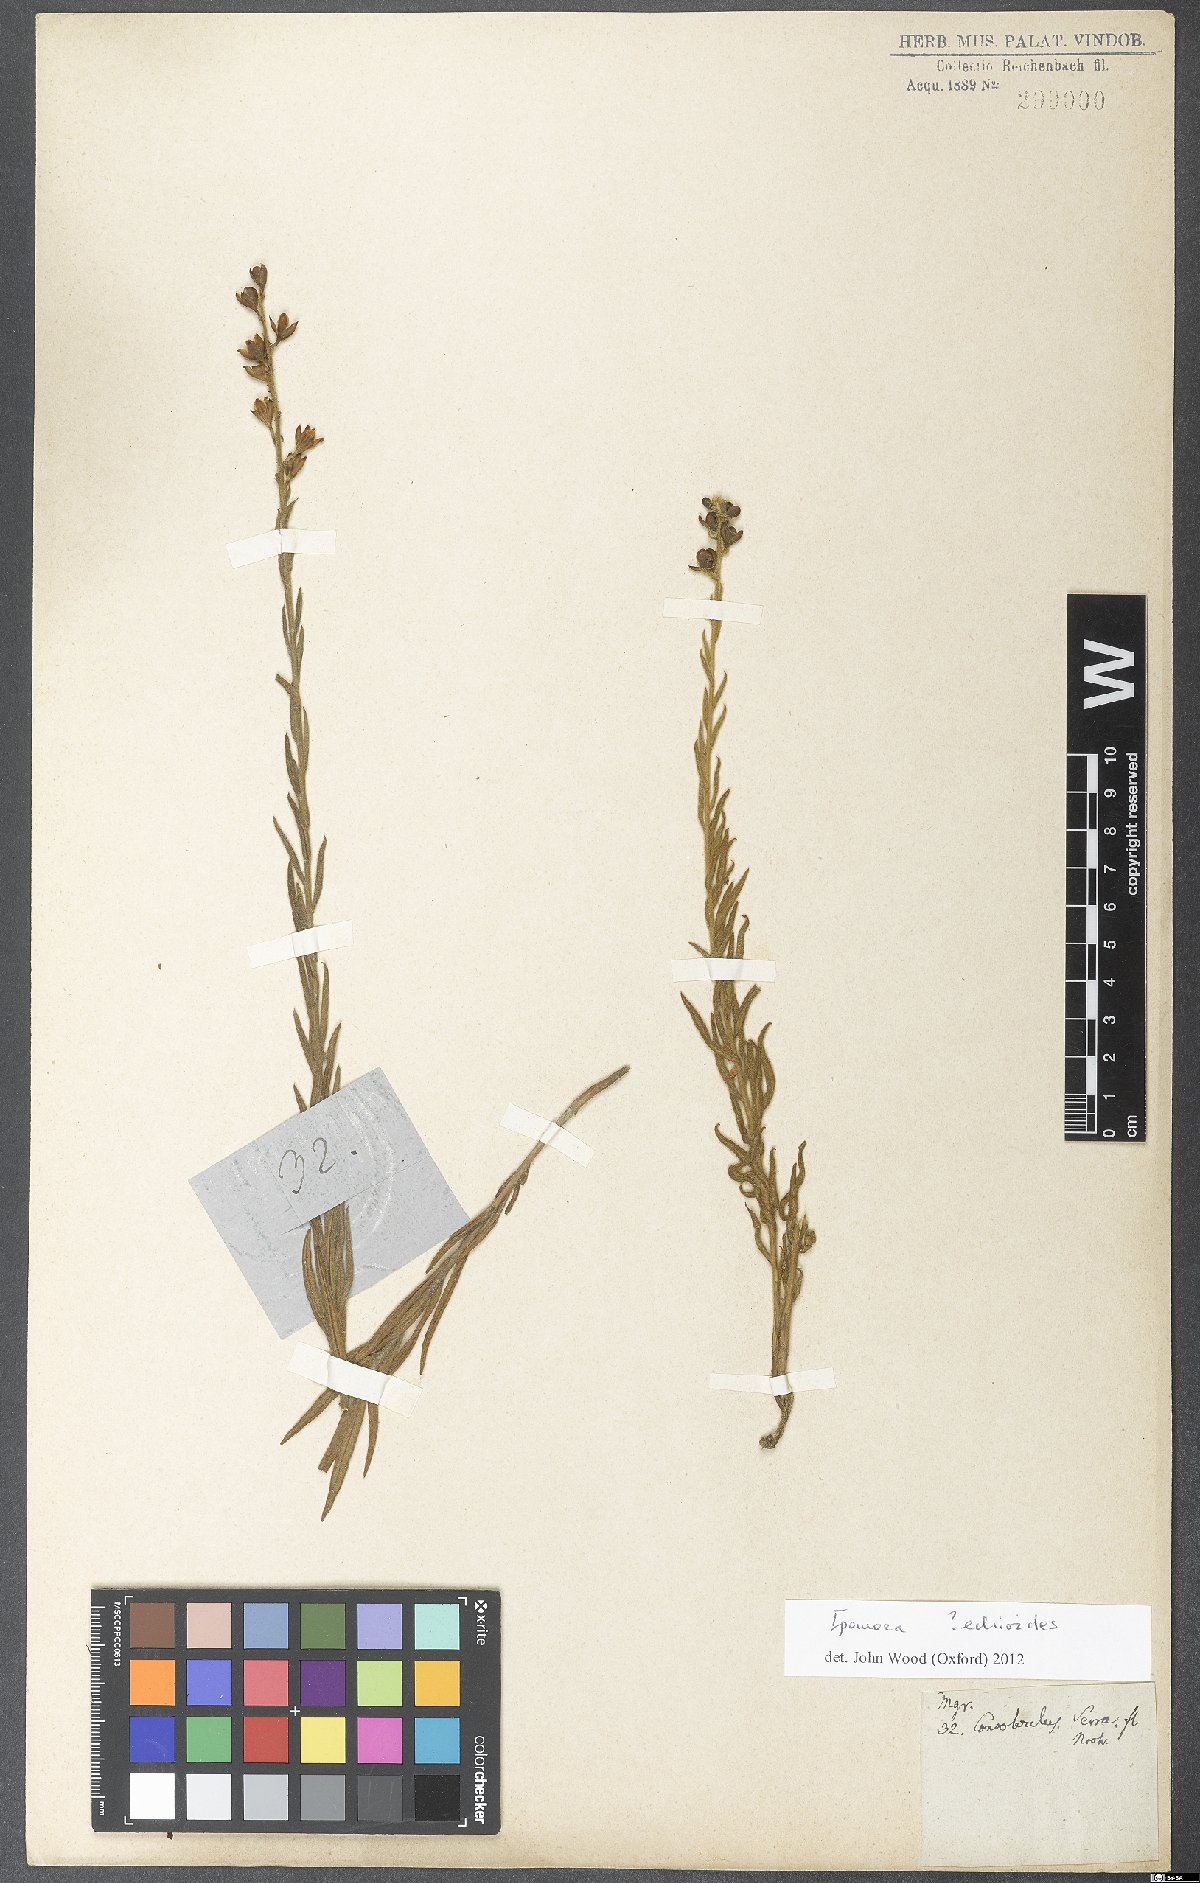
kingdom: Plantae
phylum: Tracheophyta
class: Magnoliopsida
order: Solanales
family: Convolvulaceae
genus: Ipomoea
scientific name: Ipomoea paulistana
